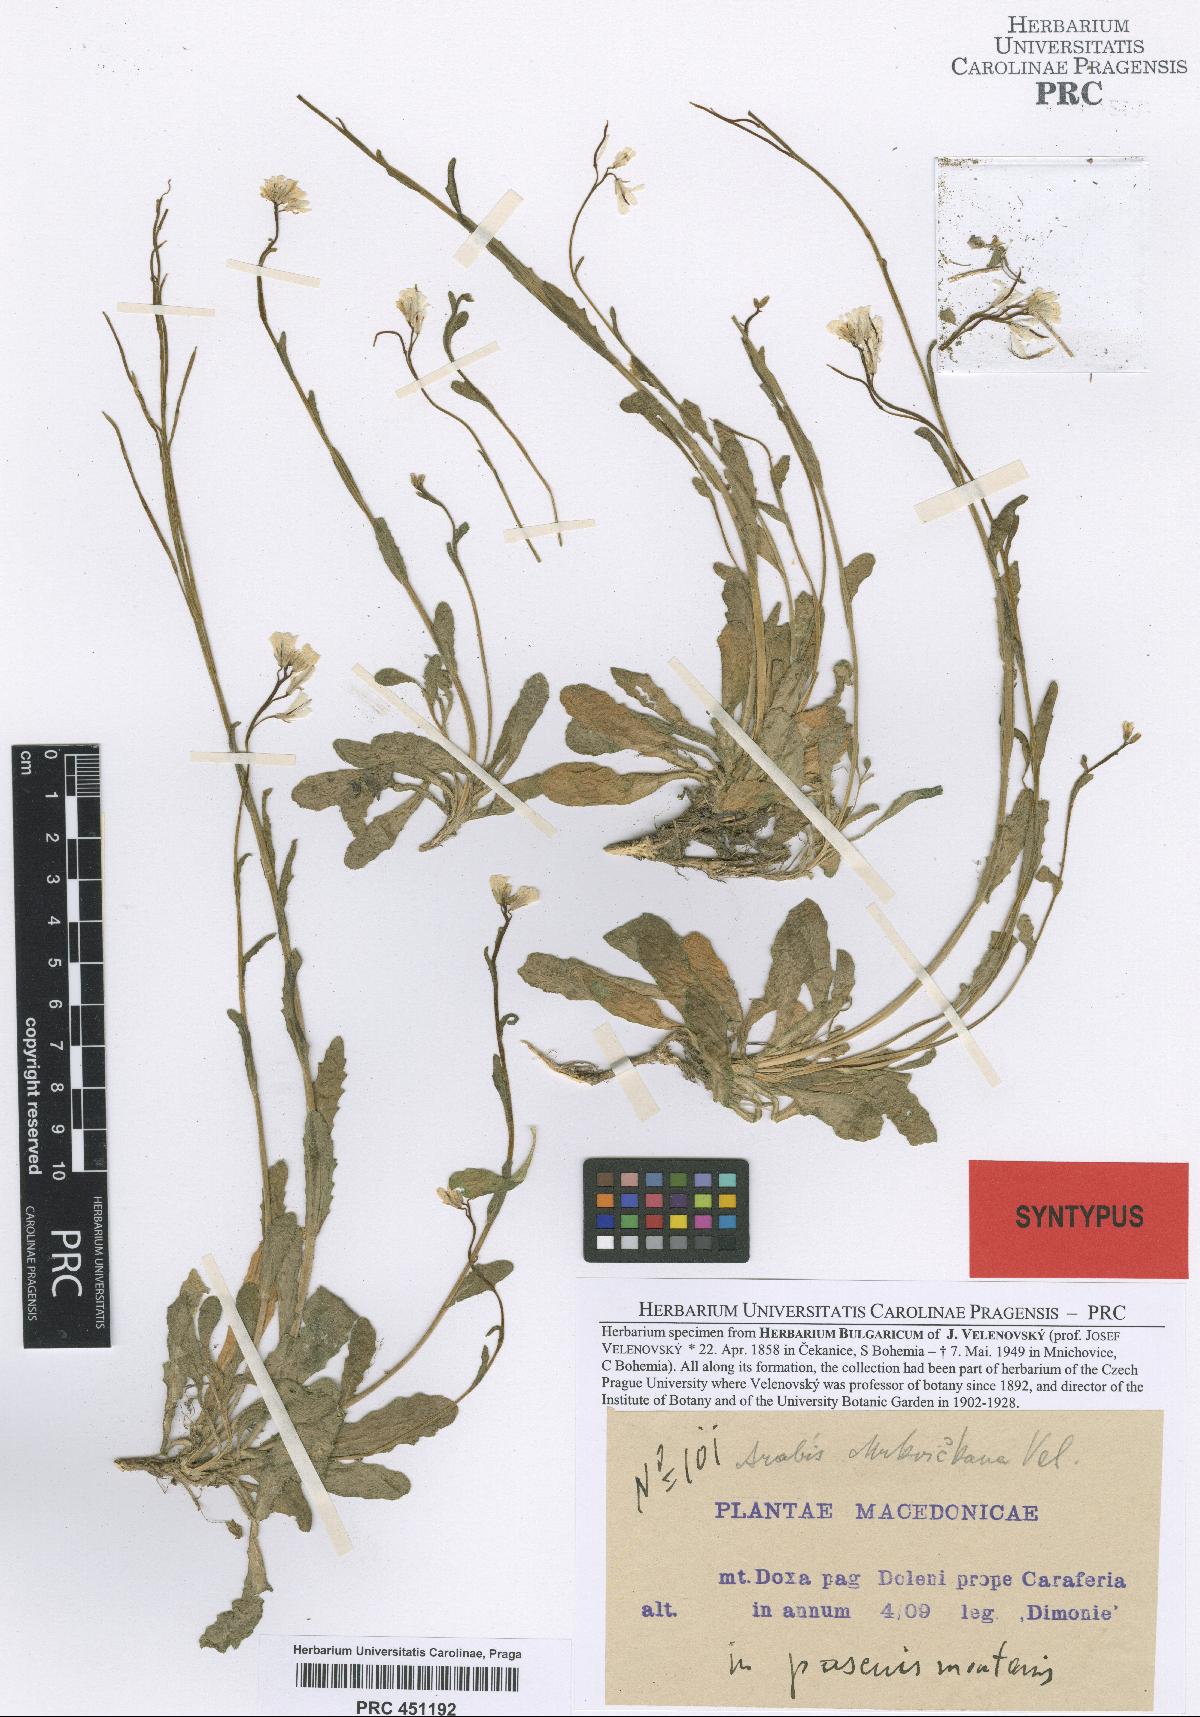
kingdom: Plantae
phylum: Tracheophyta
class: Magnoliopsida
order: Brassicales
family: Brassicaceae
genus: Arabis
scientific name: Arabis collina
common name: Rosy cress
